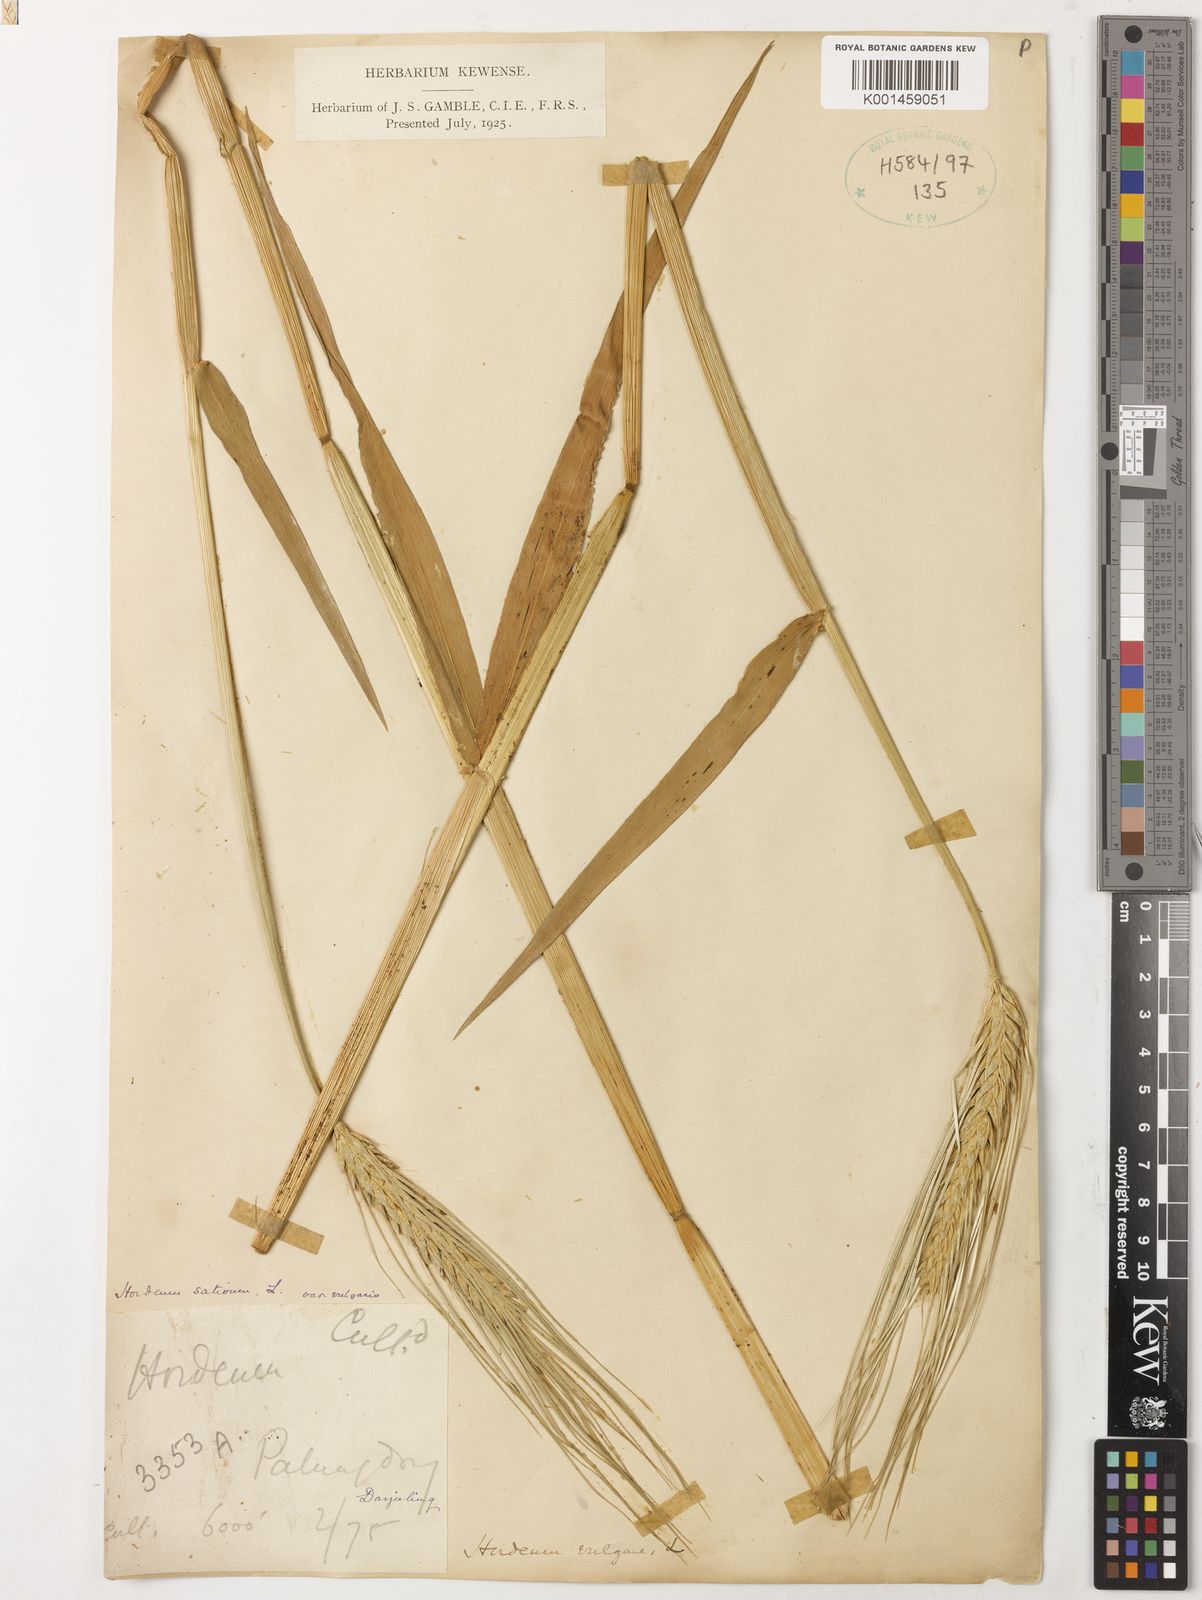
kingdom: Plantae
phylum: Tracheophyta
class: Liliopsida
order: Poales
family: Poaceae
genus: Hordeum
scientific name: Hordeum vulgare
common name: Common barley
